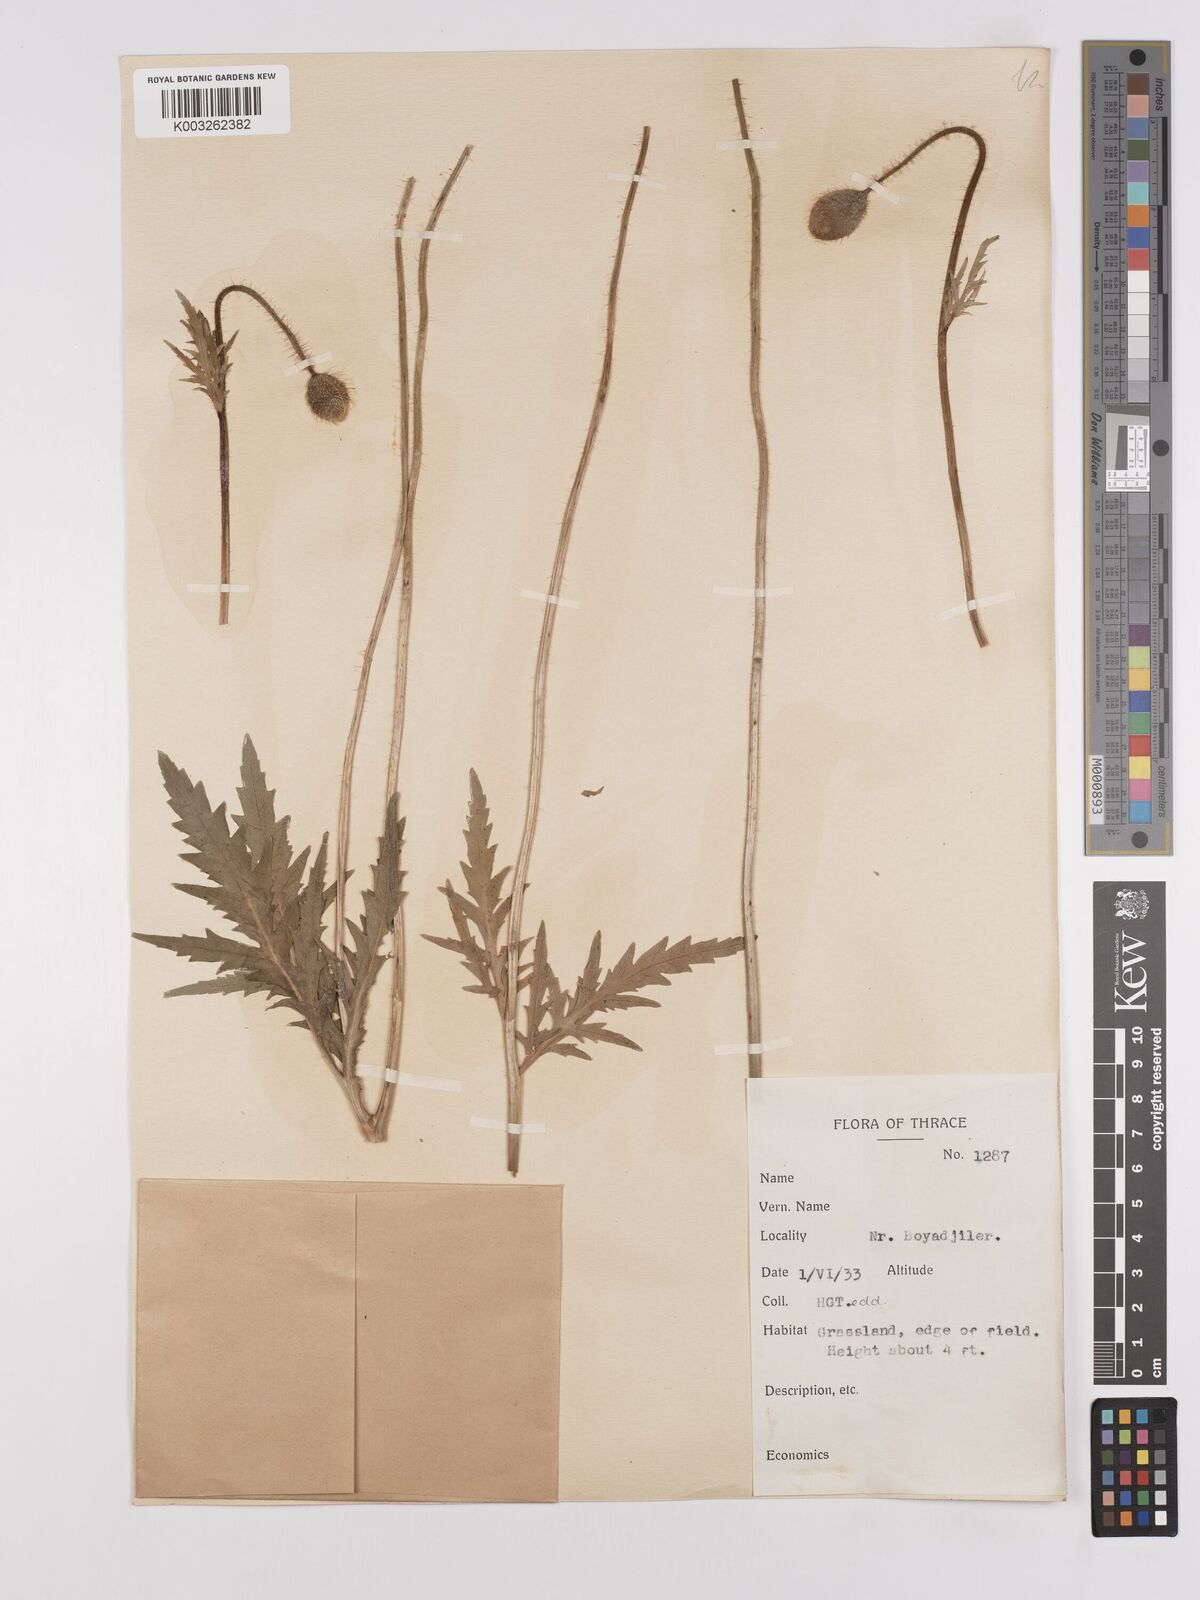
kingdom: Plantae
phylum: Tracheophyta
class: Magnoliopsida
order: Ranunculales
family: Papaveraceae
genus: Papaver
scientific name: Papaver rhoeas
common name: Corn poppy
